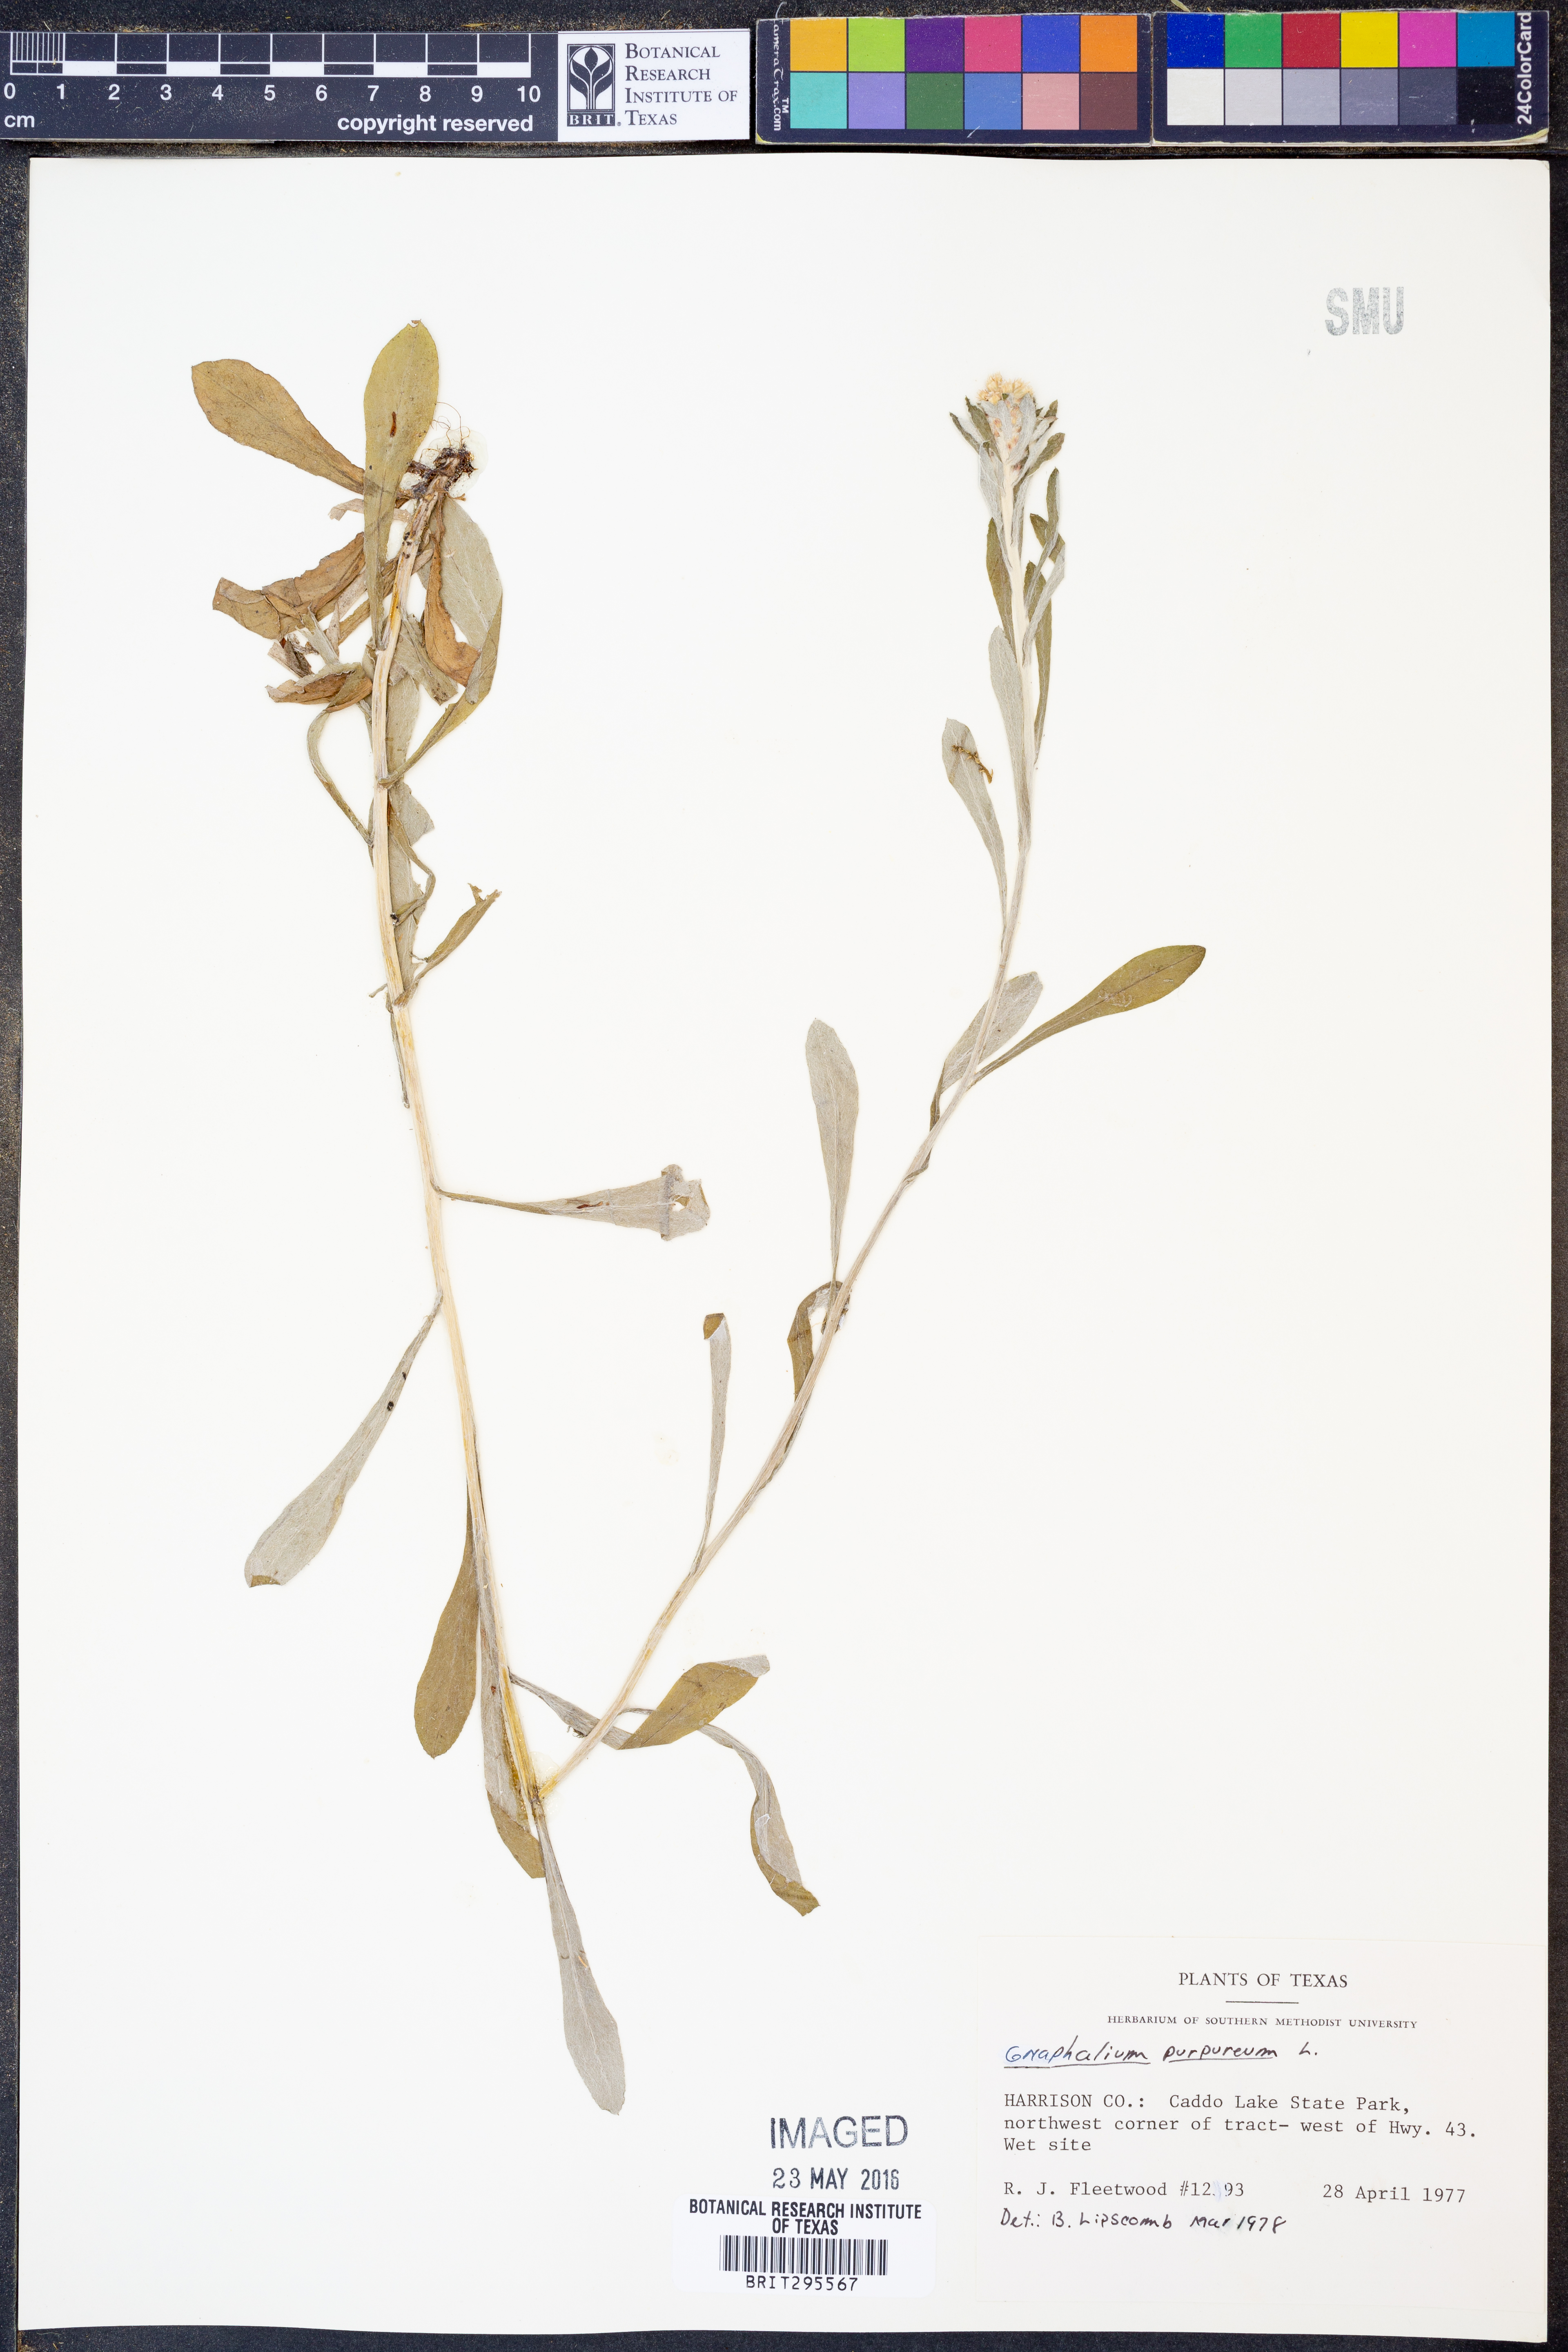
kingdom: Plantae
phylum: Tracheophyta
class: Magnoliopsida
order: Asterales
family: Asteraceae
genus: Gamochaeta
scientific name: Gamochaeta purpurea
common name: Purple cudweed
